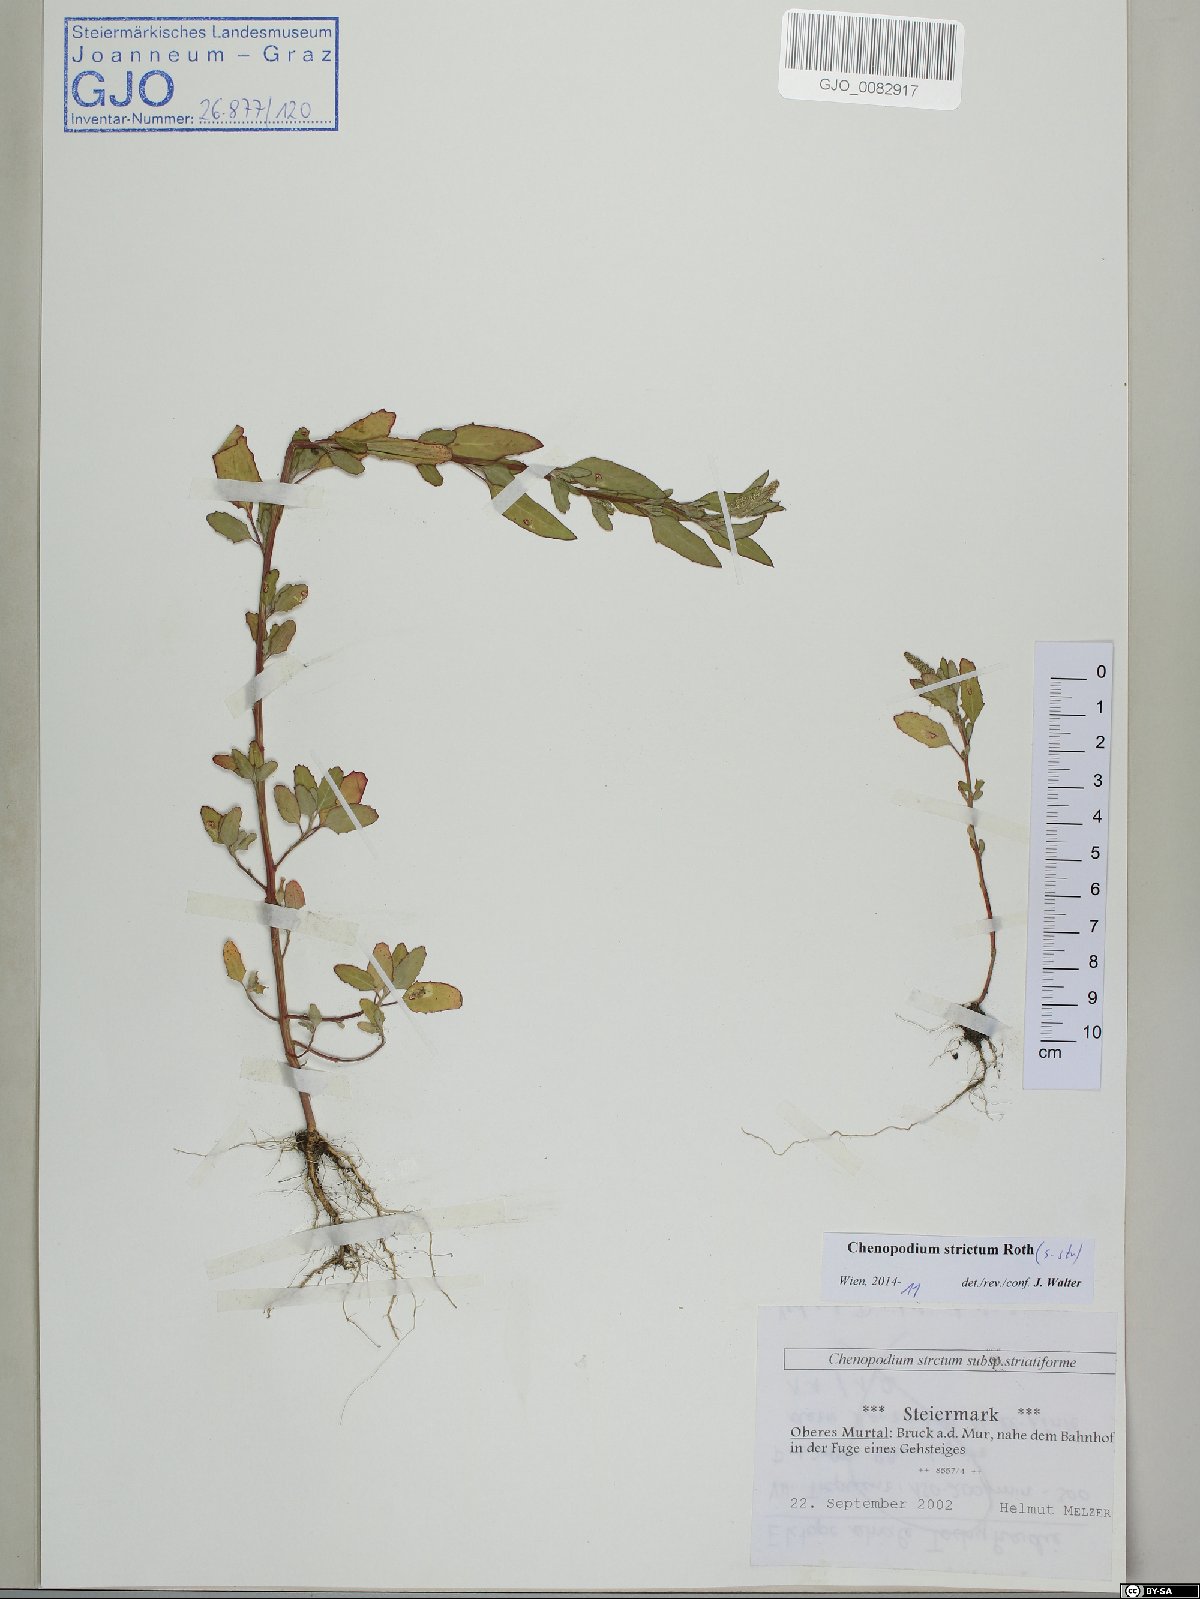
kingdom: Plantae
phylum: Tracheophyta
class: Magnoliopsida
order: Caryophyllales
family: Amaranthaceae
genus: Chenopodium
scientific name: Chenopodium album
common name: Fat-hen
